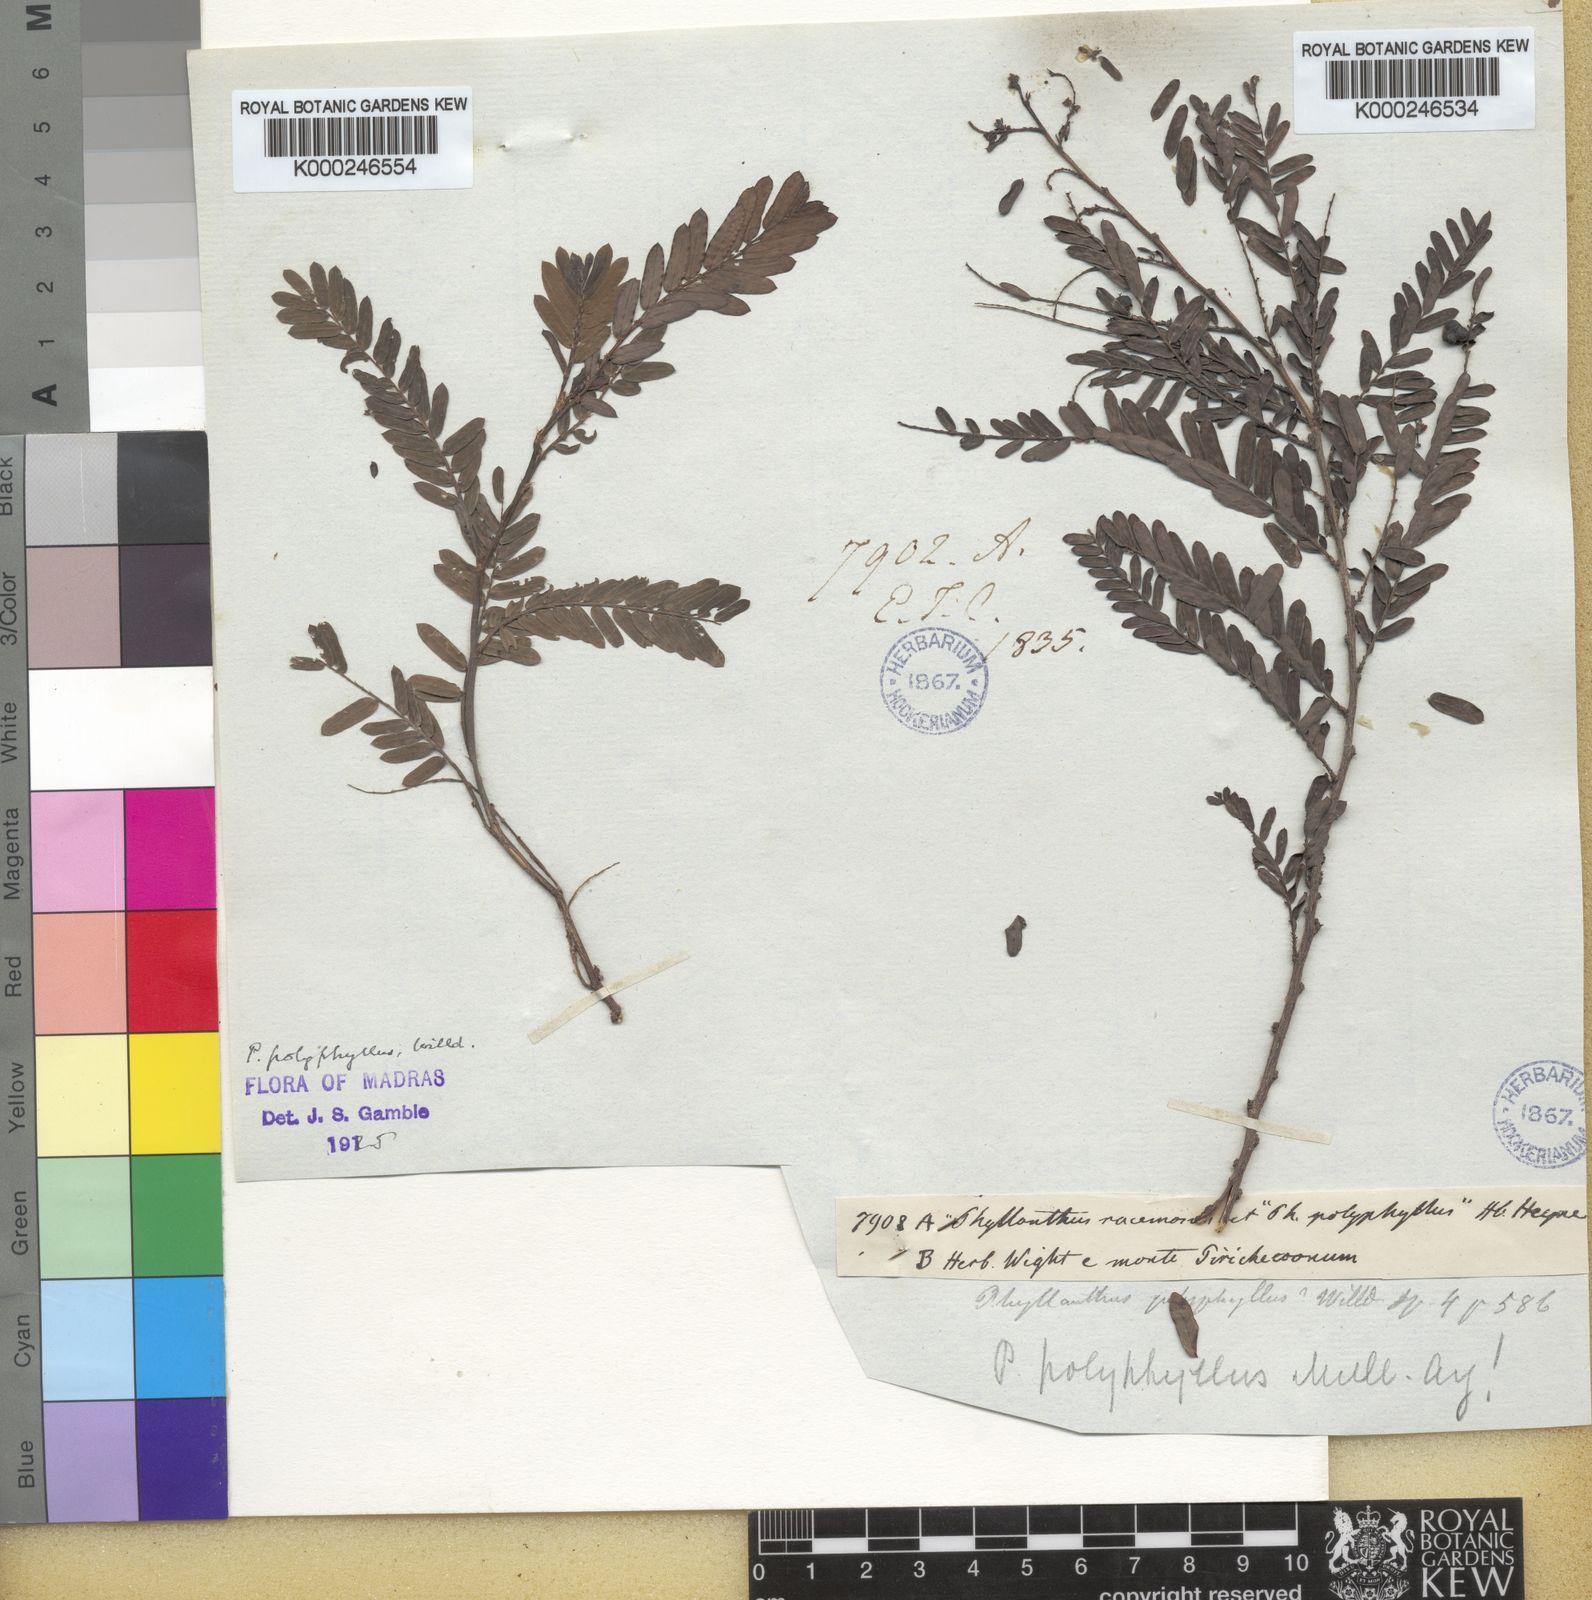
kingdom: Plantae
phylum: Tracheophyta
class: Magnoliopsida
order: Malpighiales
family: Phyllanthaceae
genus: Phyllanthus
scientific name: Phyllanthus racemosus
